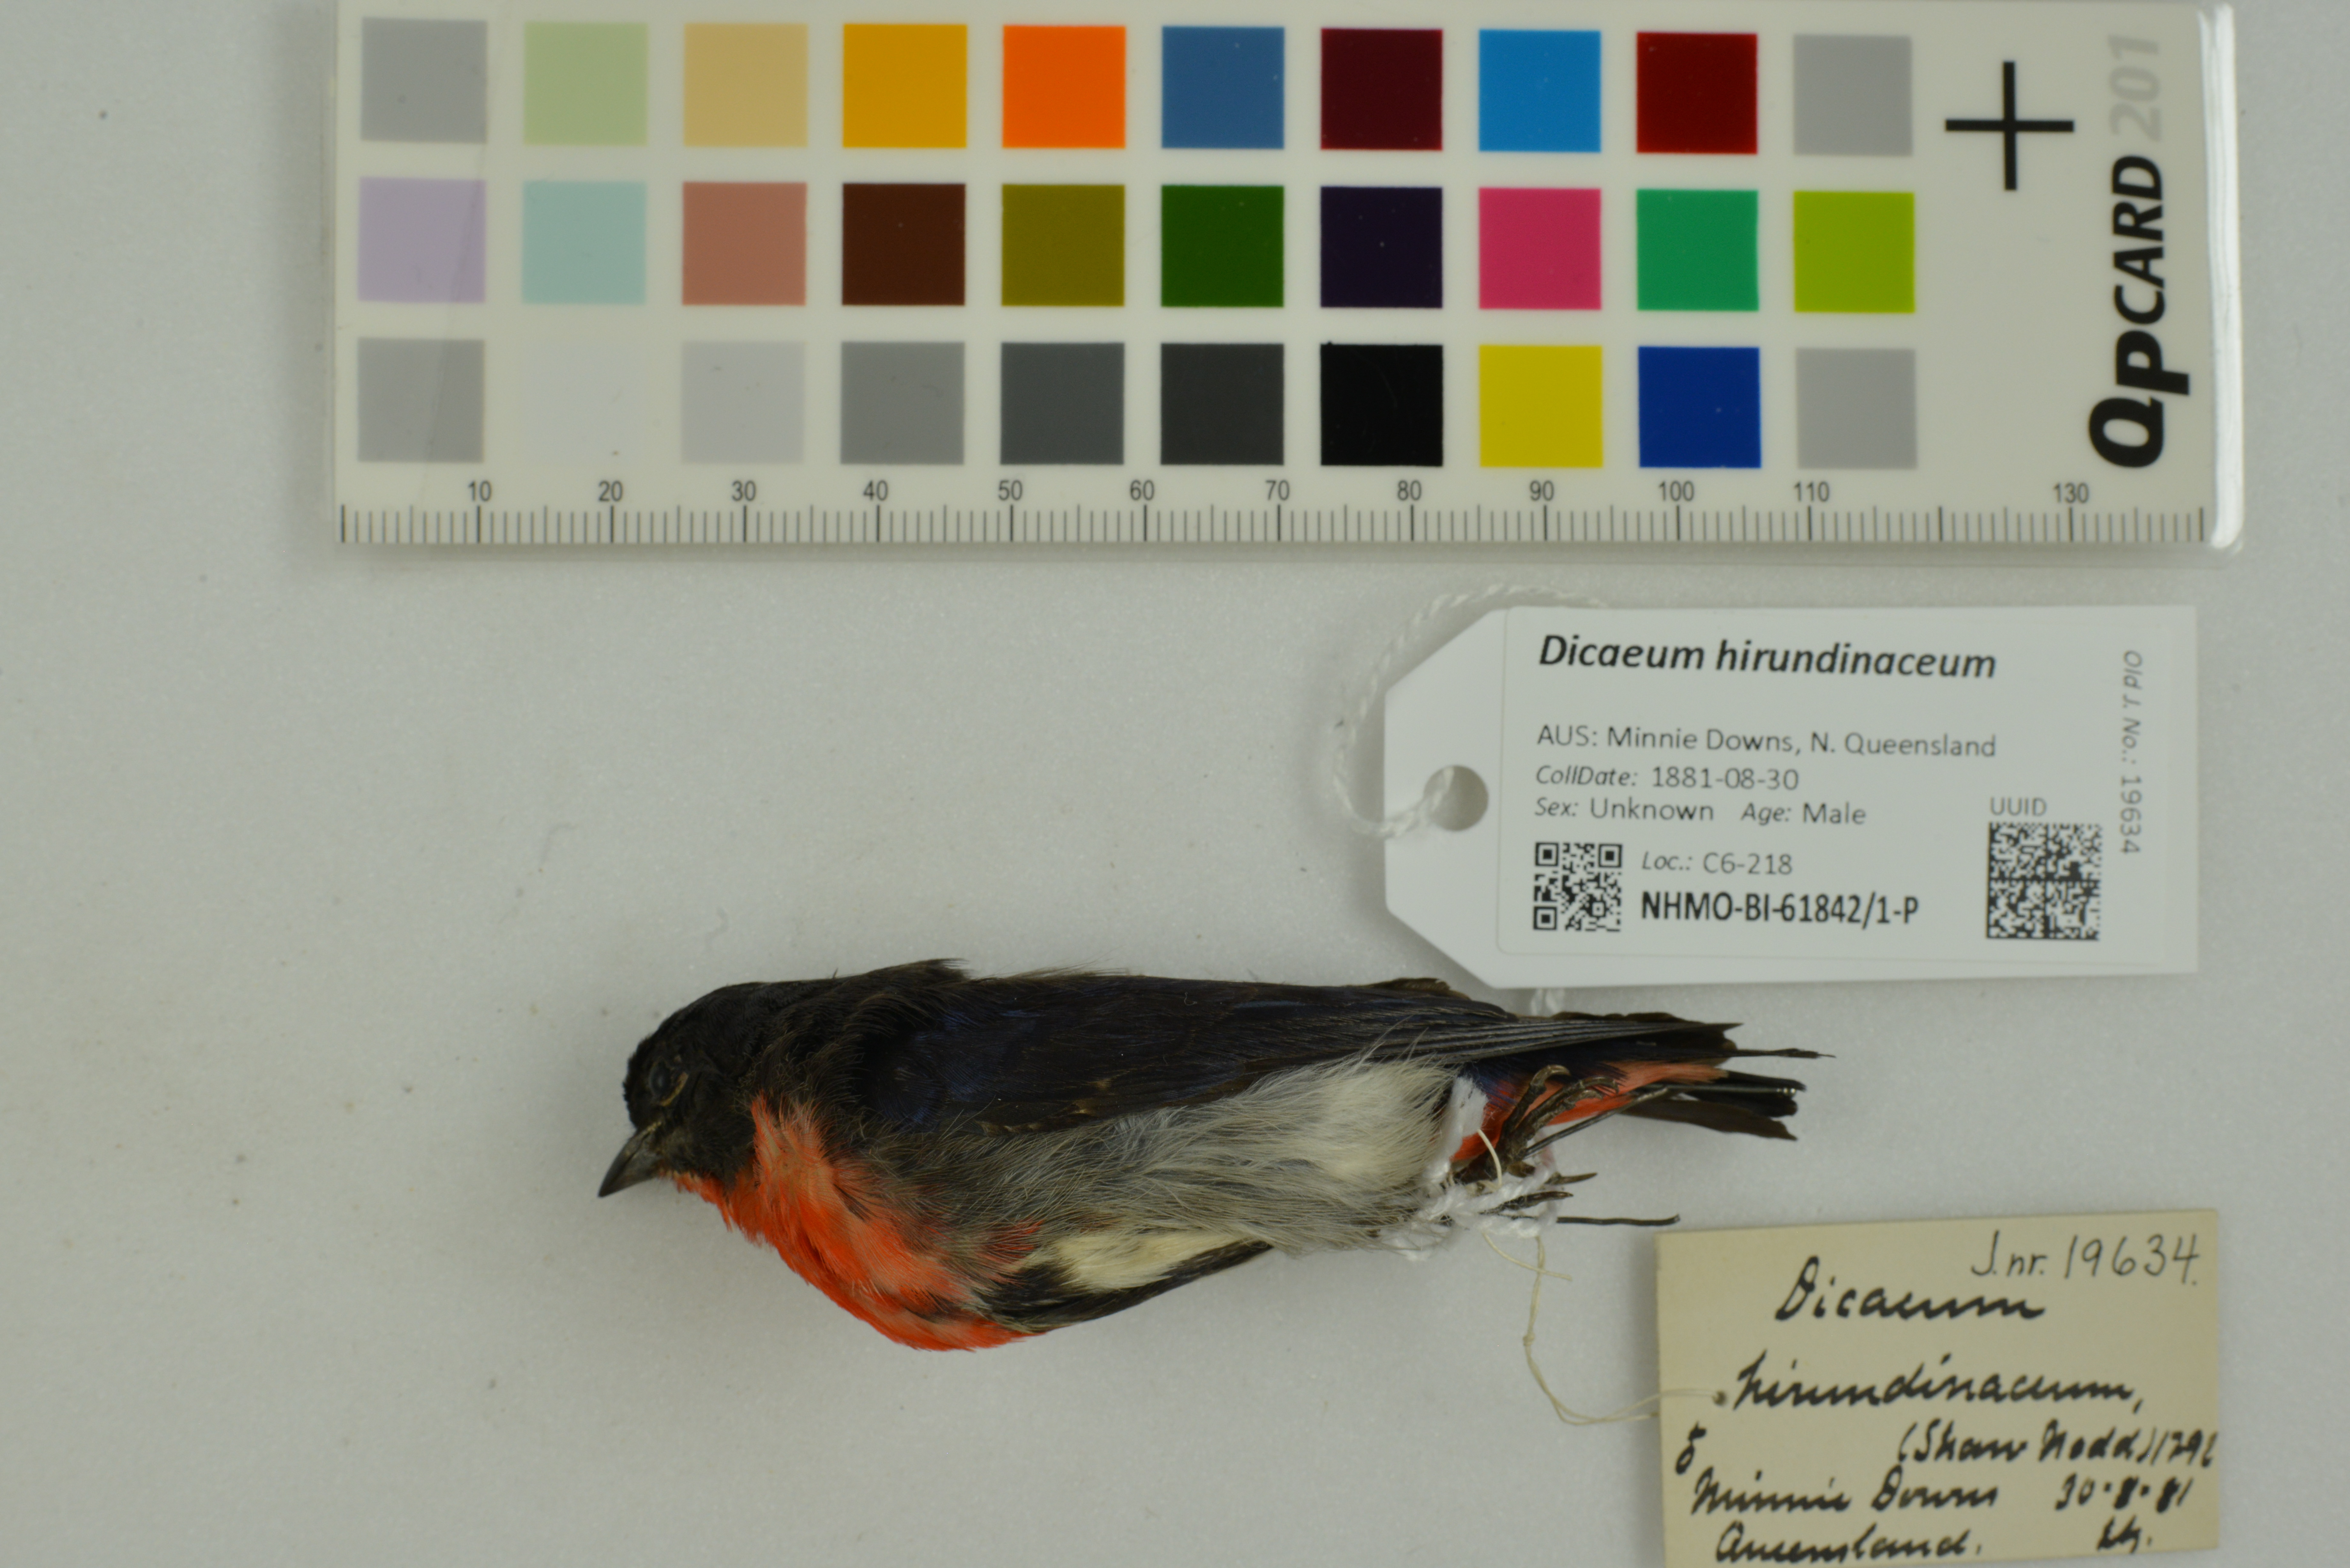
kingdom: Animalia
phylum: Chordata
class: Aves
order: Passeriformes
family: Dicaeidae
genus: Dicaeum
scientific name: Dicaeum hirundinaceum
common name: Mistletoebird
